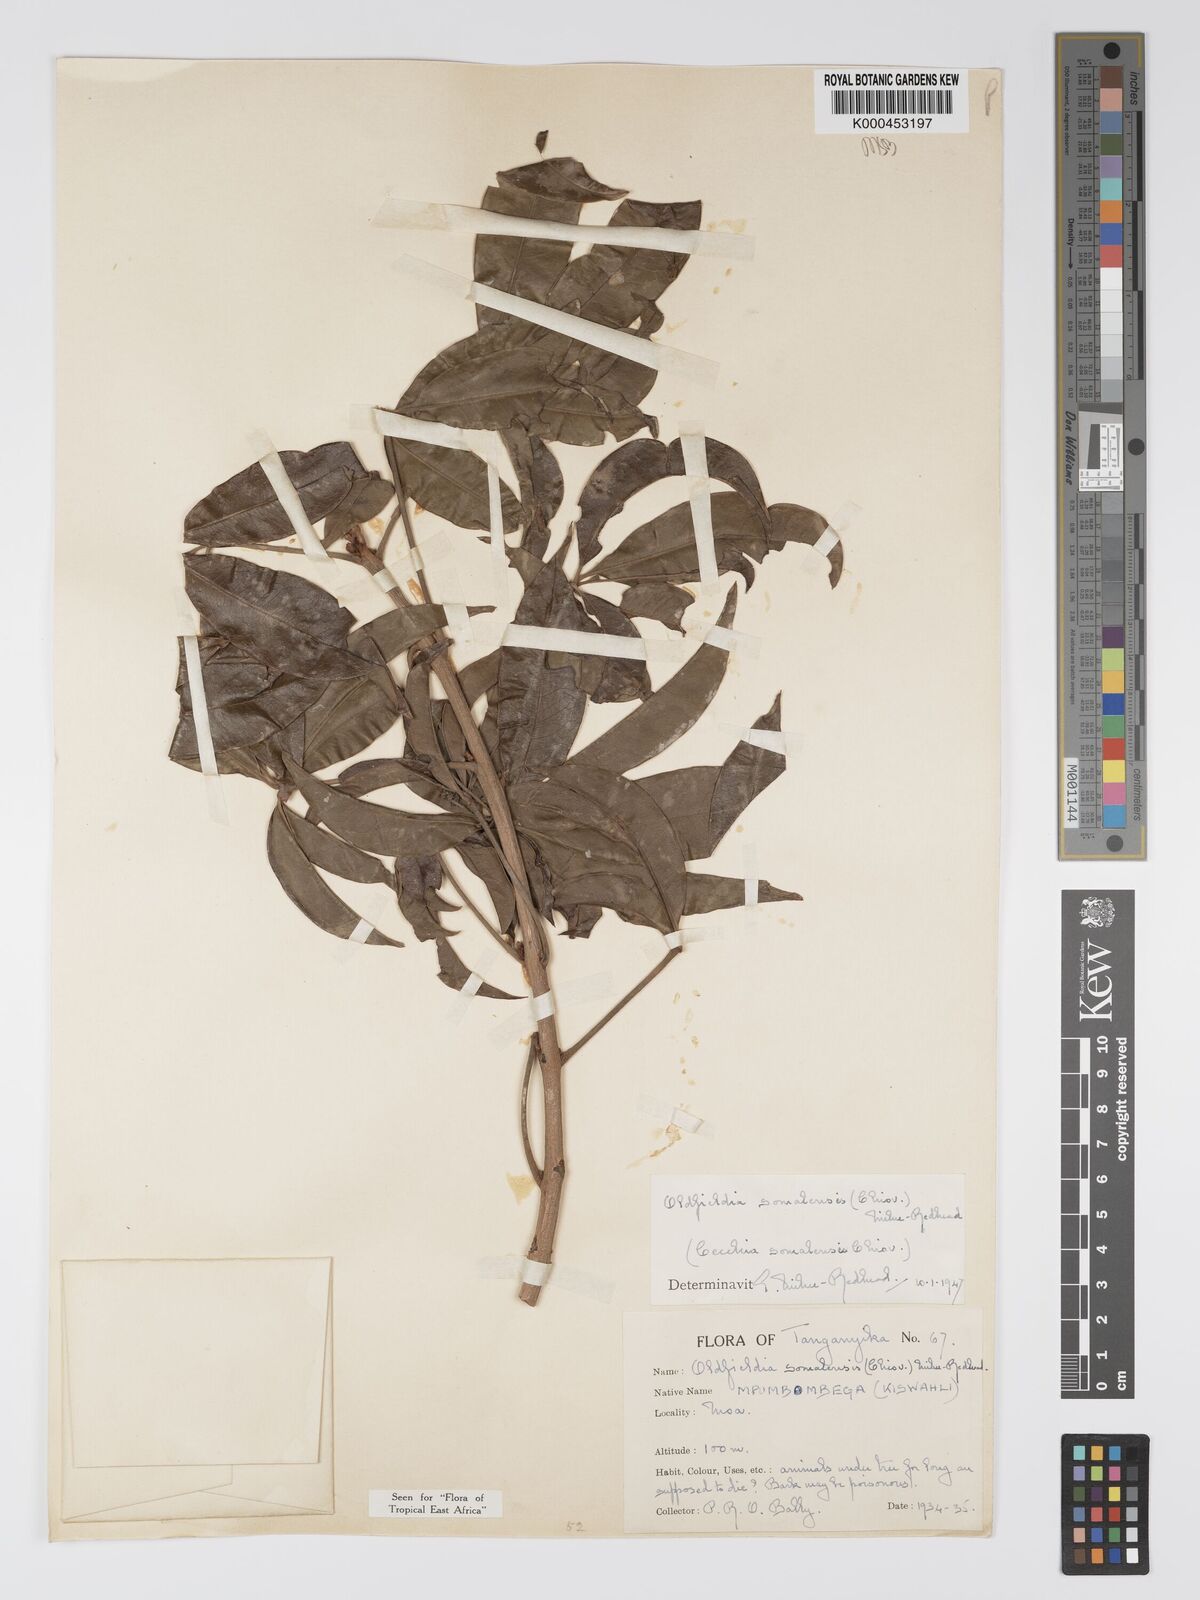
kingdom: Plantae
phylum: Tracheophyta
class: Magnoliopsida
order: Malpighiales
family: Picrodendraceae
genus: Oldfieldia
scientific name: Oldfieldia somalensis
